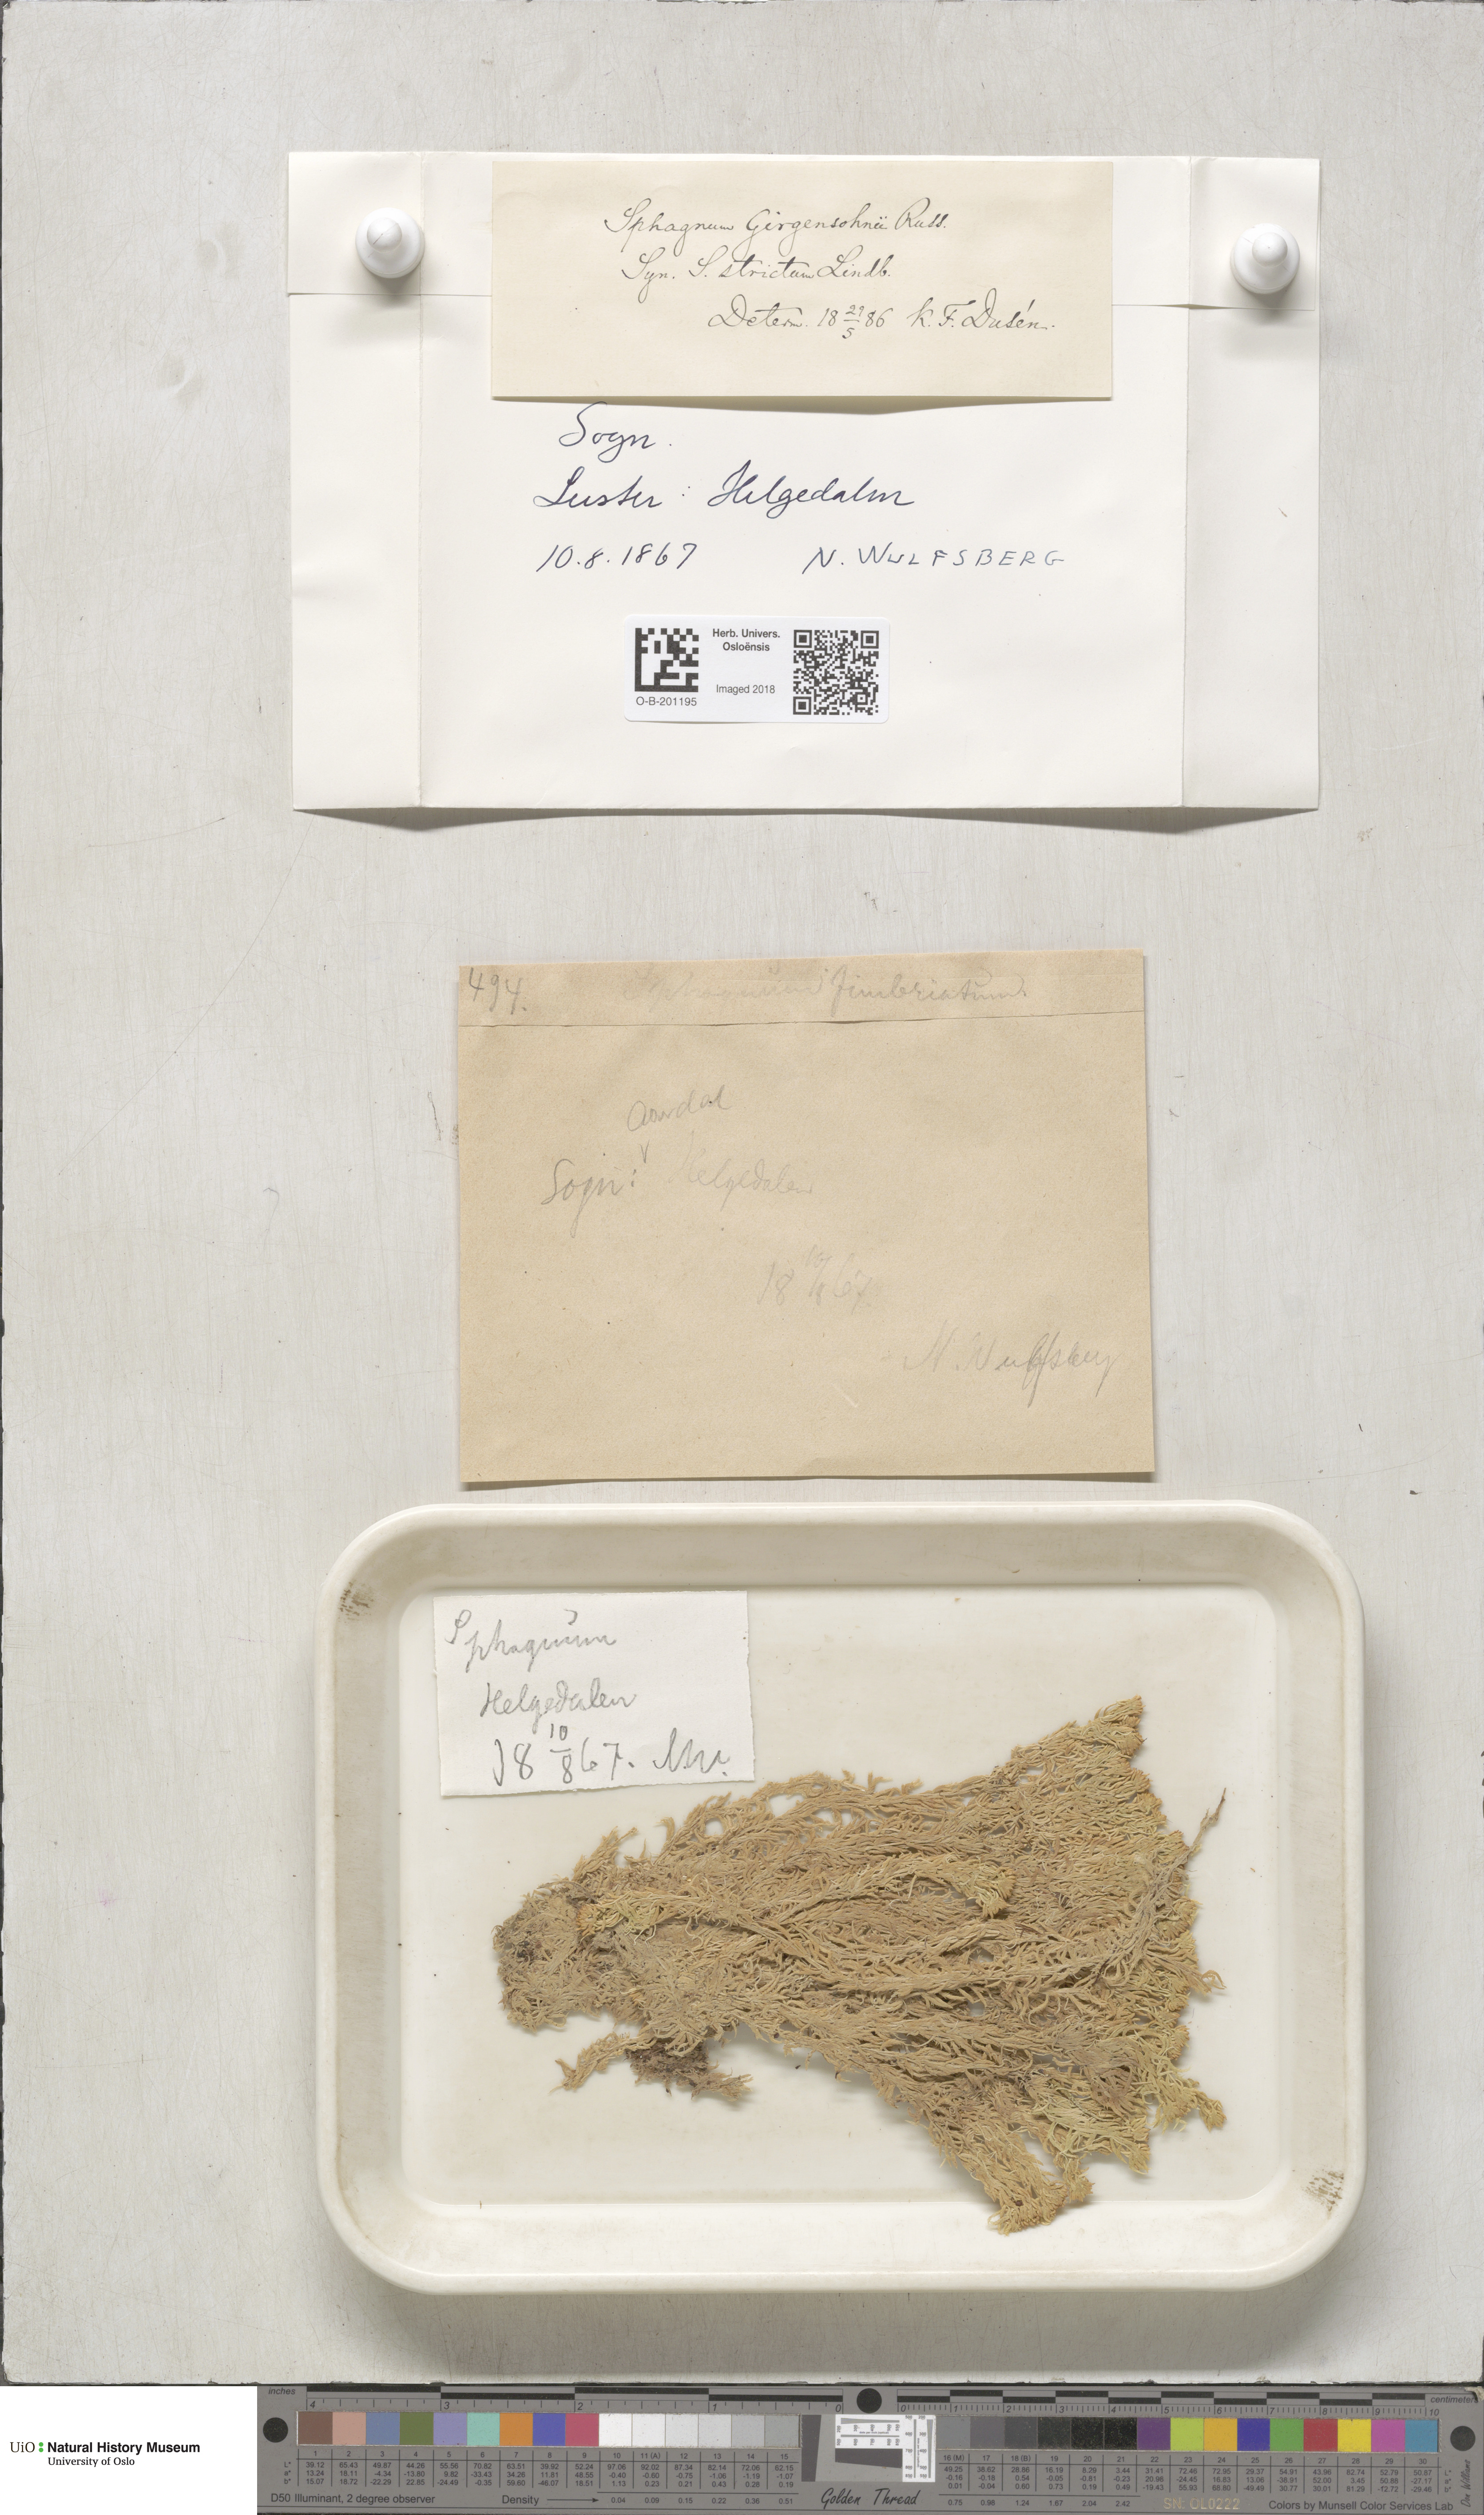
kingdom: Plantae
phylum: Bryophyta
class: Sphagnopsida
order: Sphagnales
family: Sphagnaceae
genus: Sphagnum
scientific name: Sphagnum girgensohnii
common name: Girgensohn's peat moss
